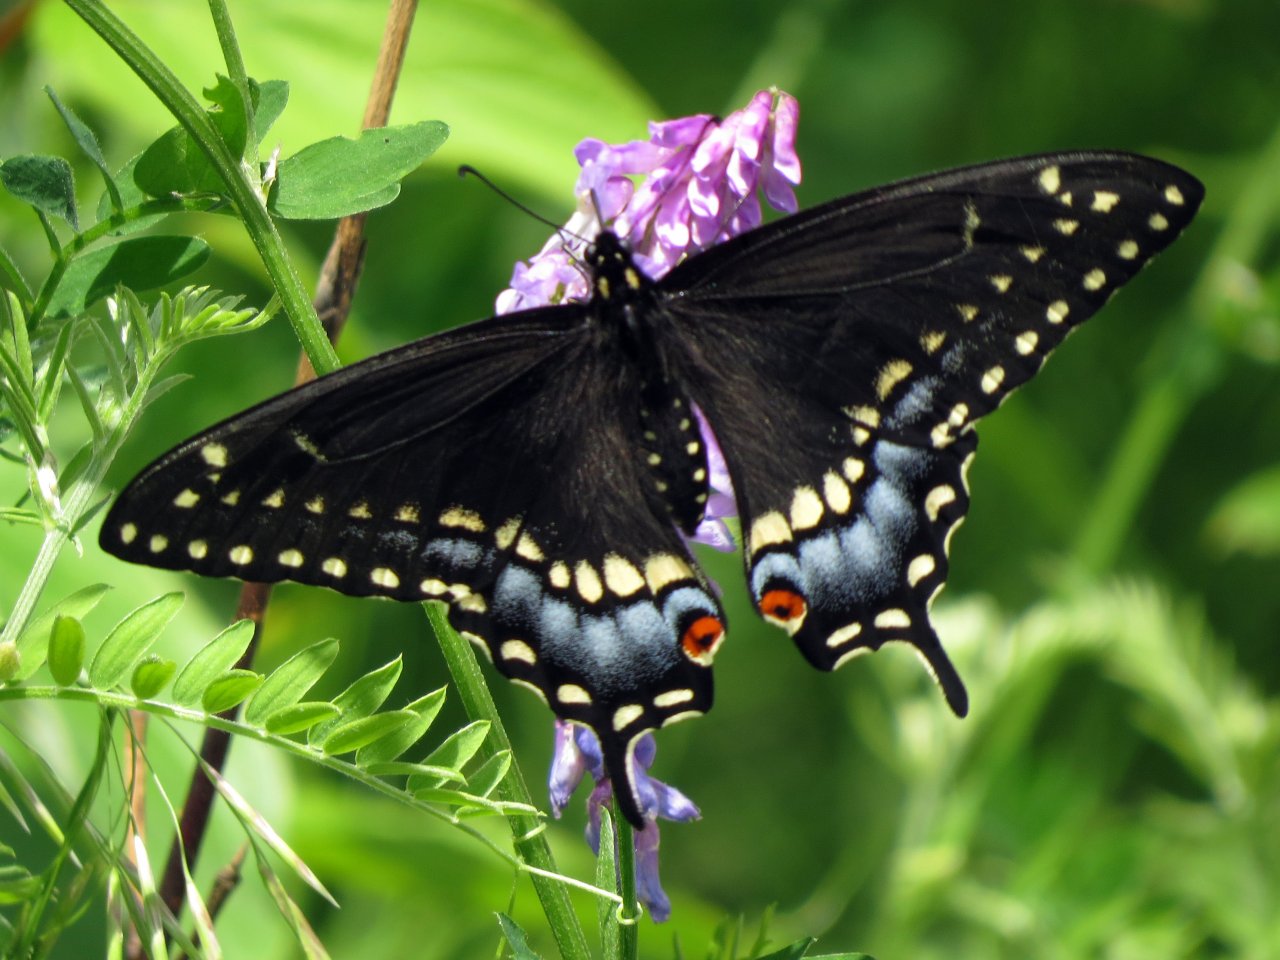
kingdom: Animalia
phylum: Arthropoda
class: Insecta
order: Lepidoptera
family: Papilionidae
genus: Papilio
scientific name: Papilio polyxenes
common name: Black Swallowtail
